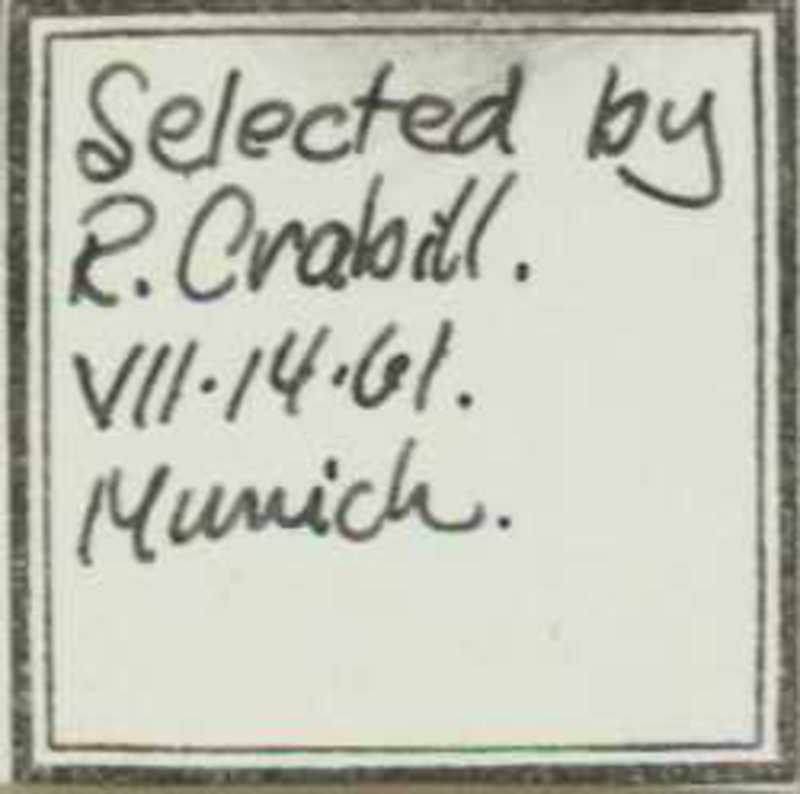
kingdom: Animalia
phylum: Arthropoda
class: Chilopoda
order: Geophilomorpha
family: Geophilidae
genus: Geoperingueyia
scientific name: Geoperingueyia armata
